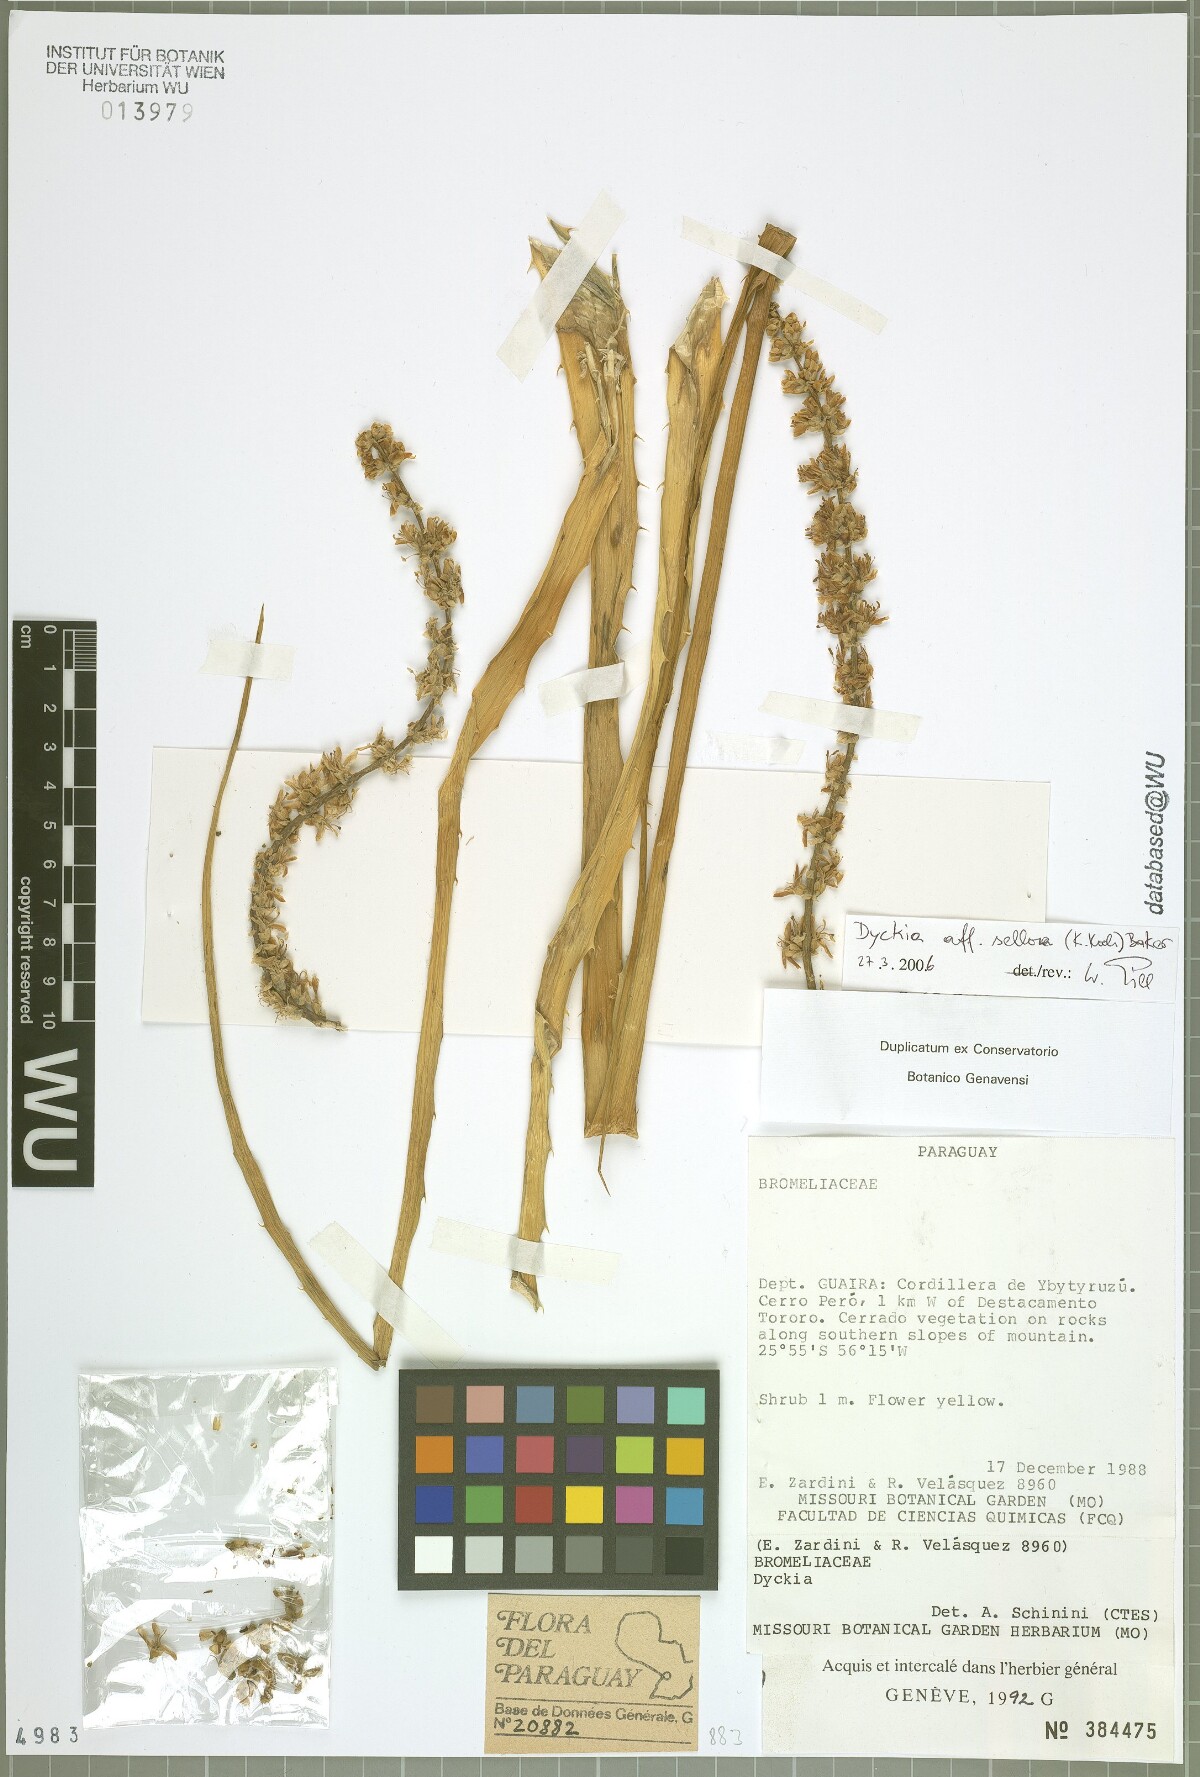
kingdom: Plantae
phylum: Tracheophyta
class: Liliopsida
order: Poales
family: Bromeliaceae
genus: Dyckia
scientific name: Dyckia
